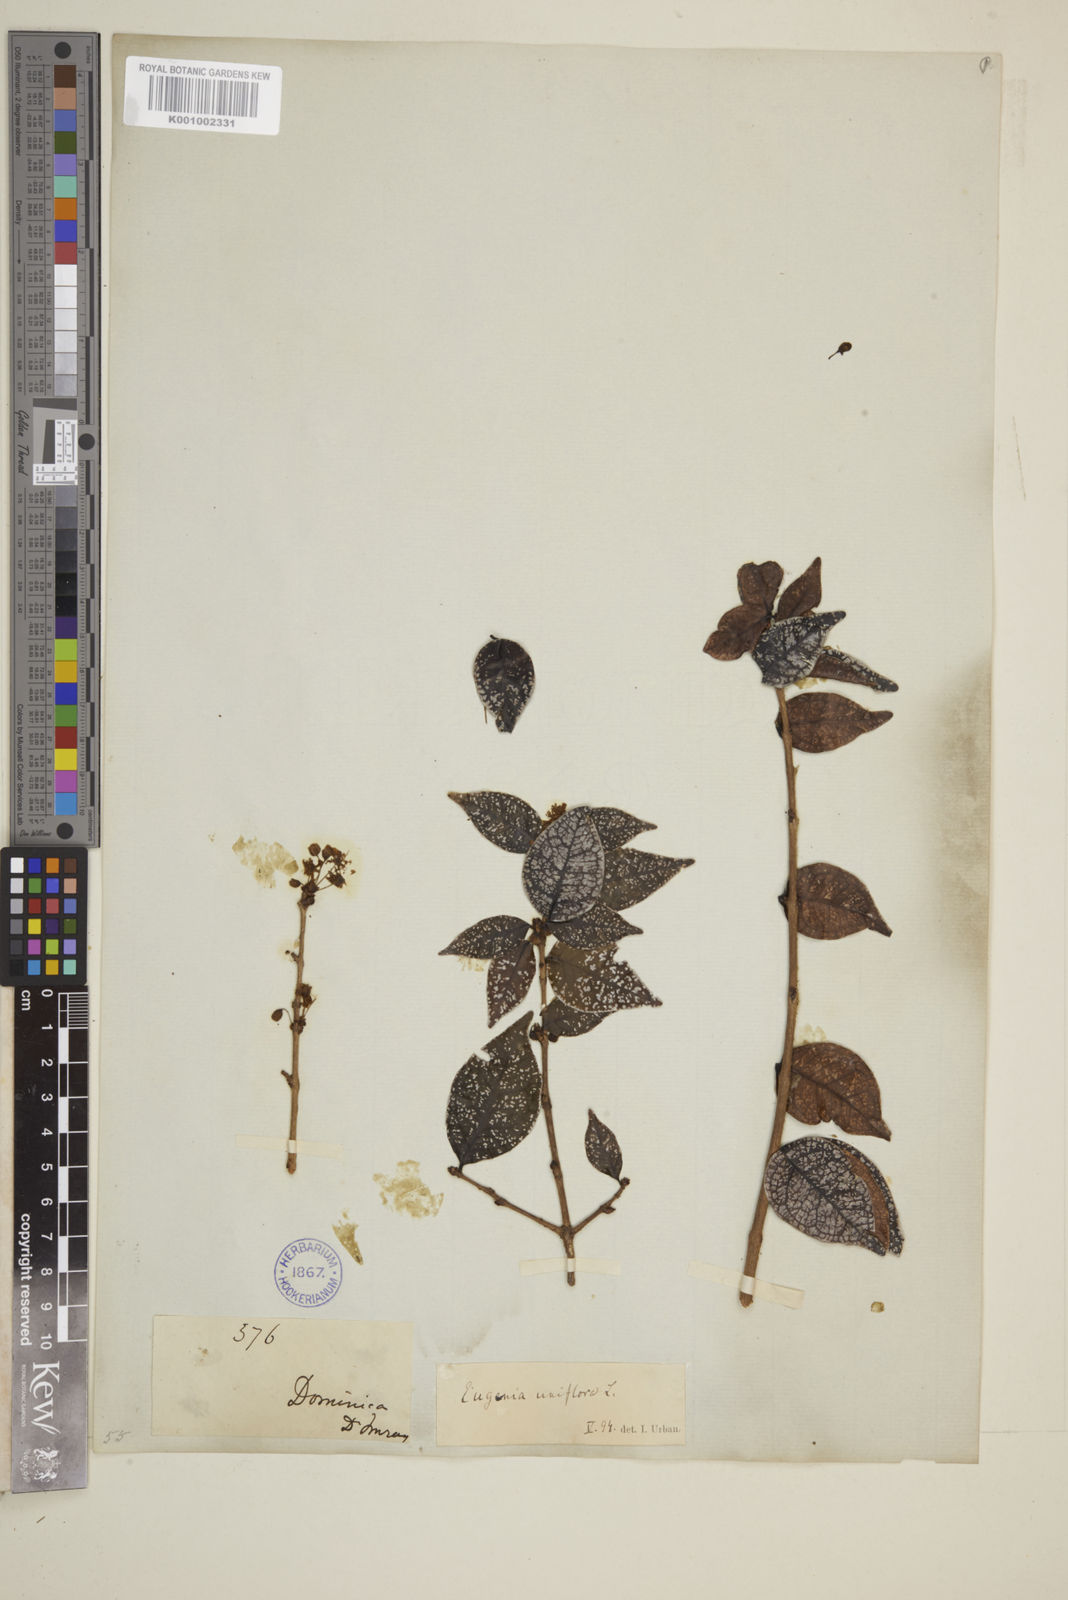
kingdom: Plantae
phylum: Tracheophyta
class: Magnoliopsida
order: Myrtales
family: Myrtaceae
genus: Eugenia
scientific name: Eugenia uniflora
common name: Surinam cherry
